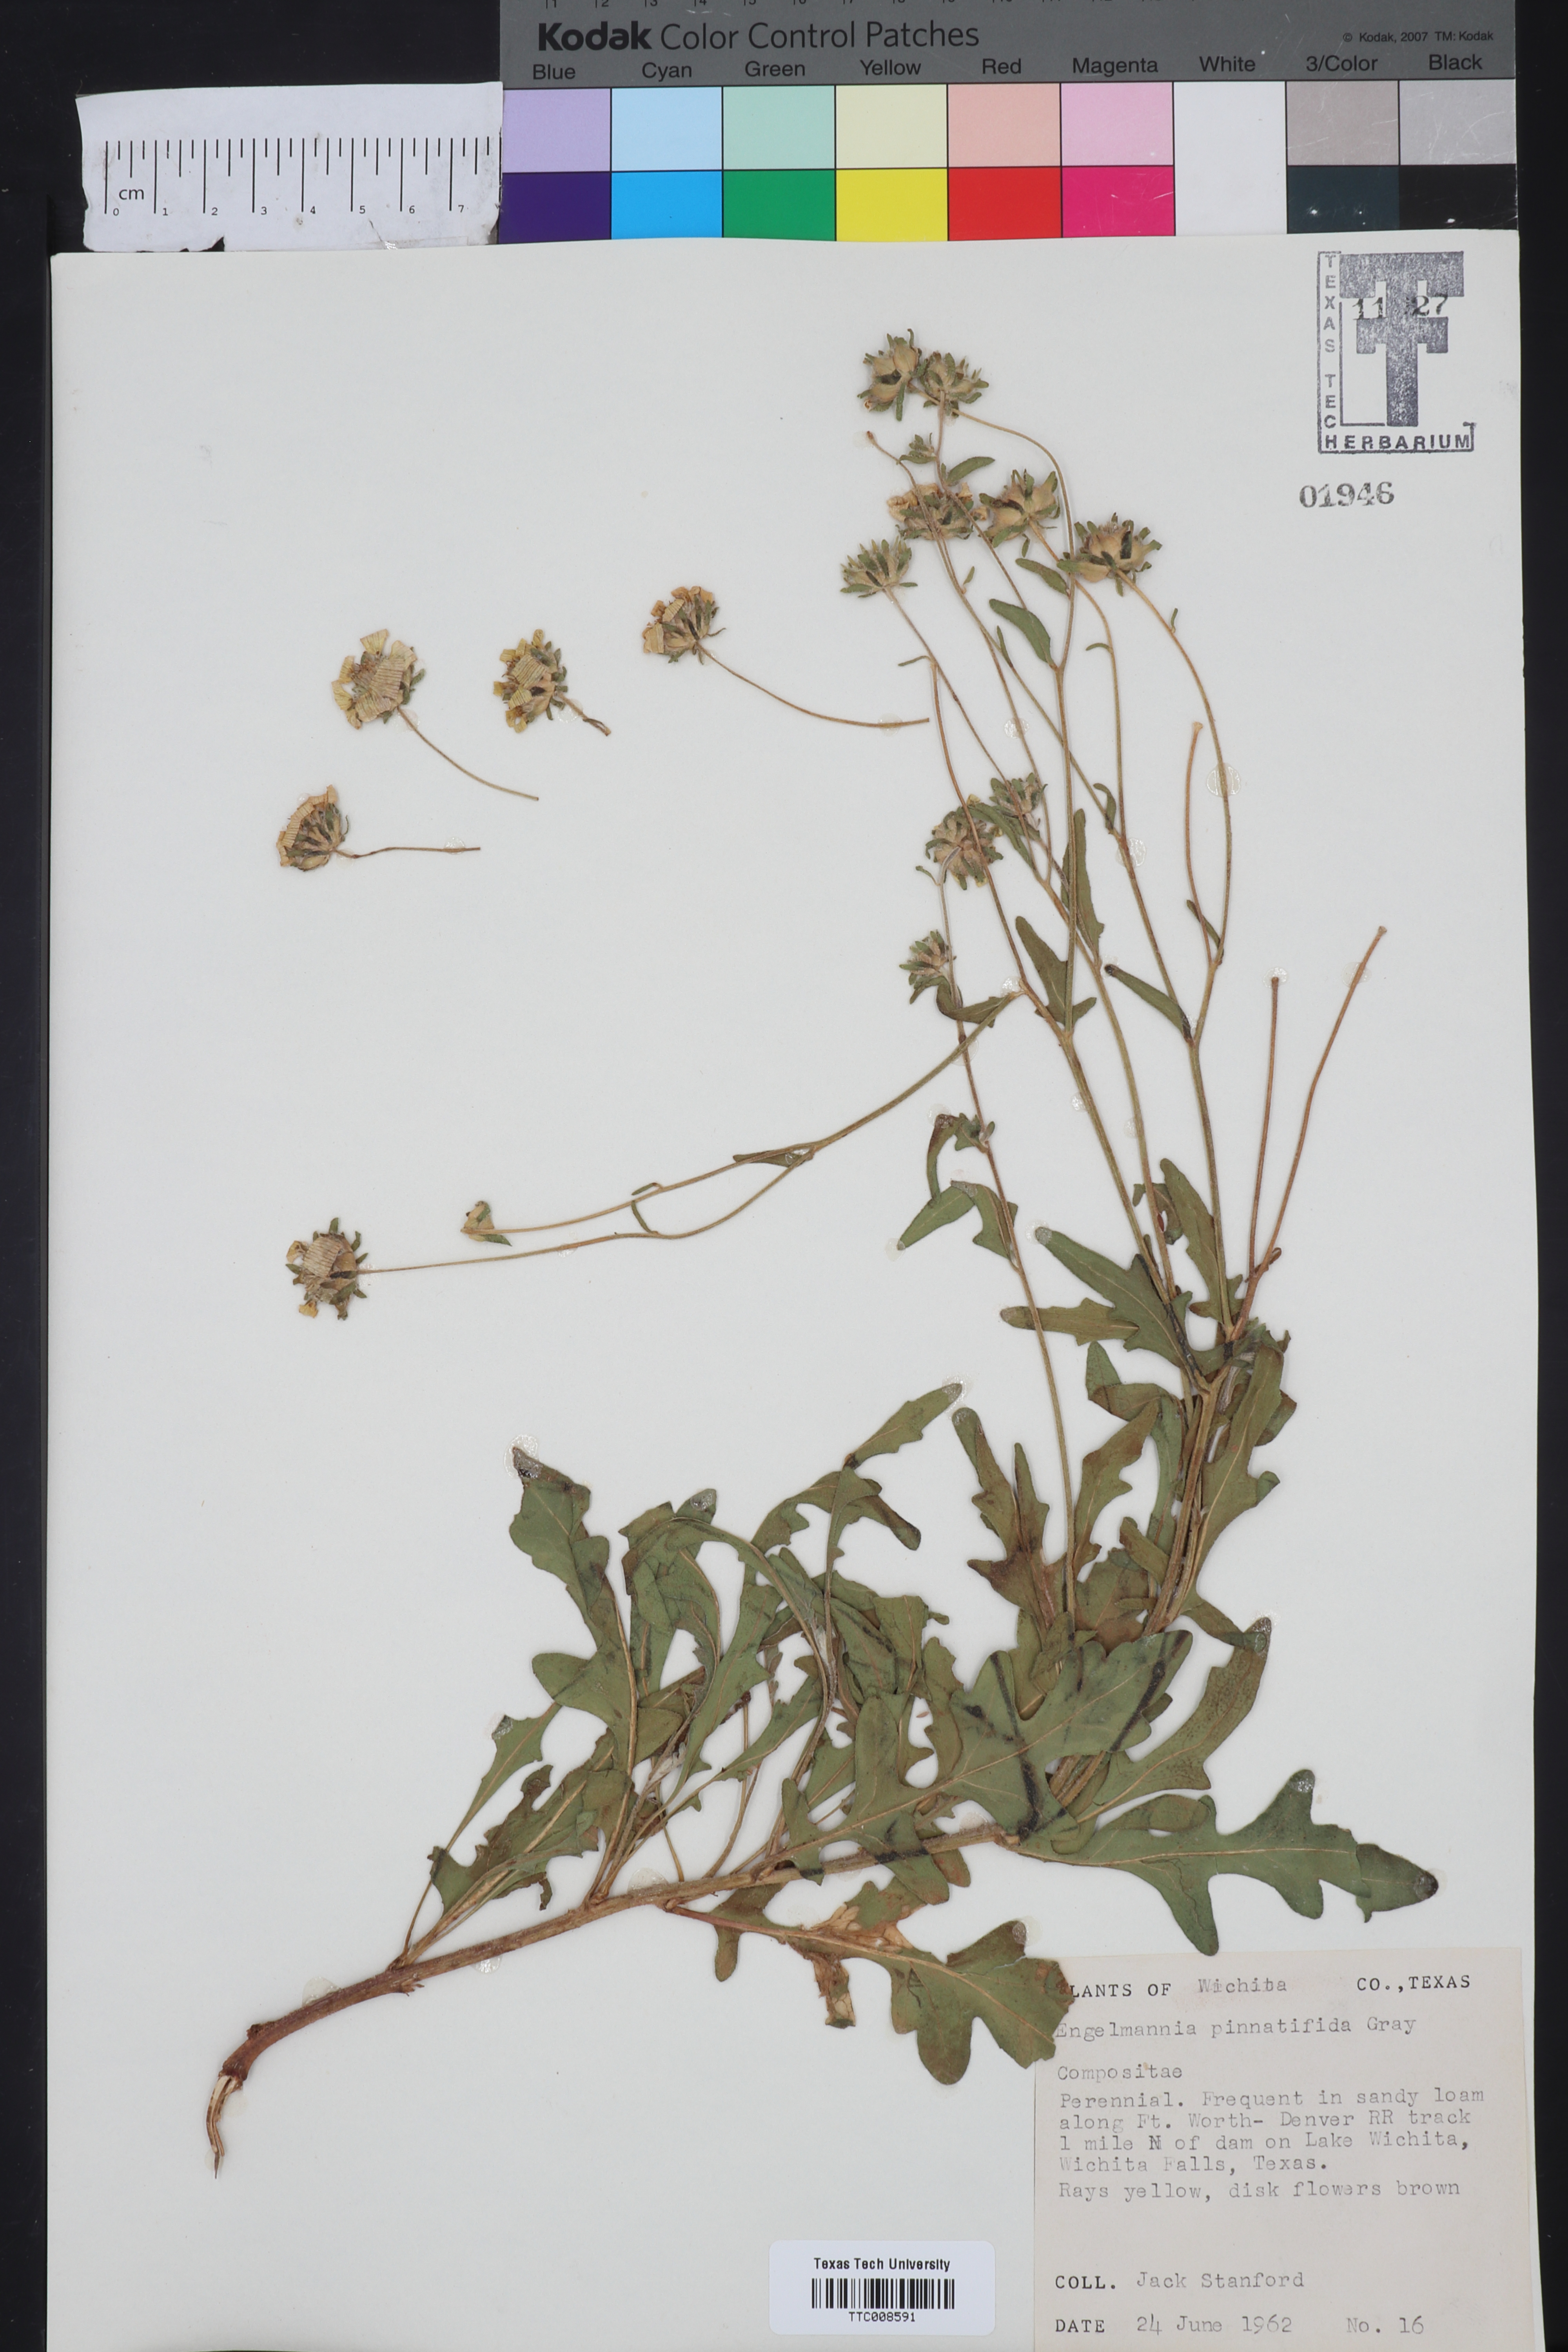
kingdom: Plantae
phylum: Tracheophyta
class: Magnoliopsida
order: Asterales
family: Asteraceae
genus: Engelmannia
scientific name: Engelmannia peristenia
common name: Engelmann's daisy
